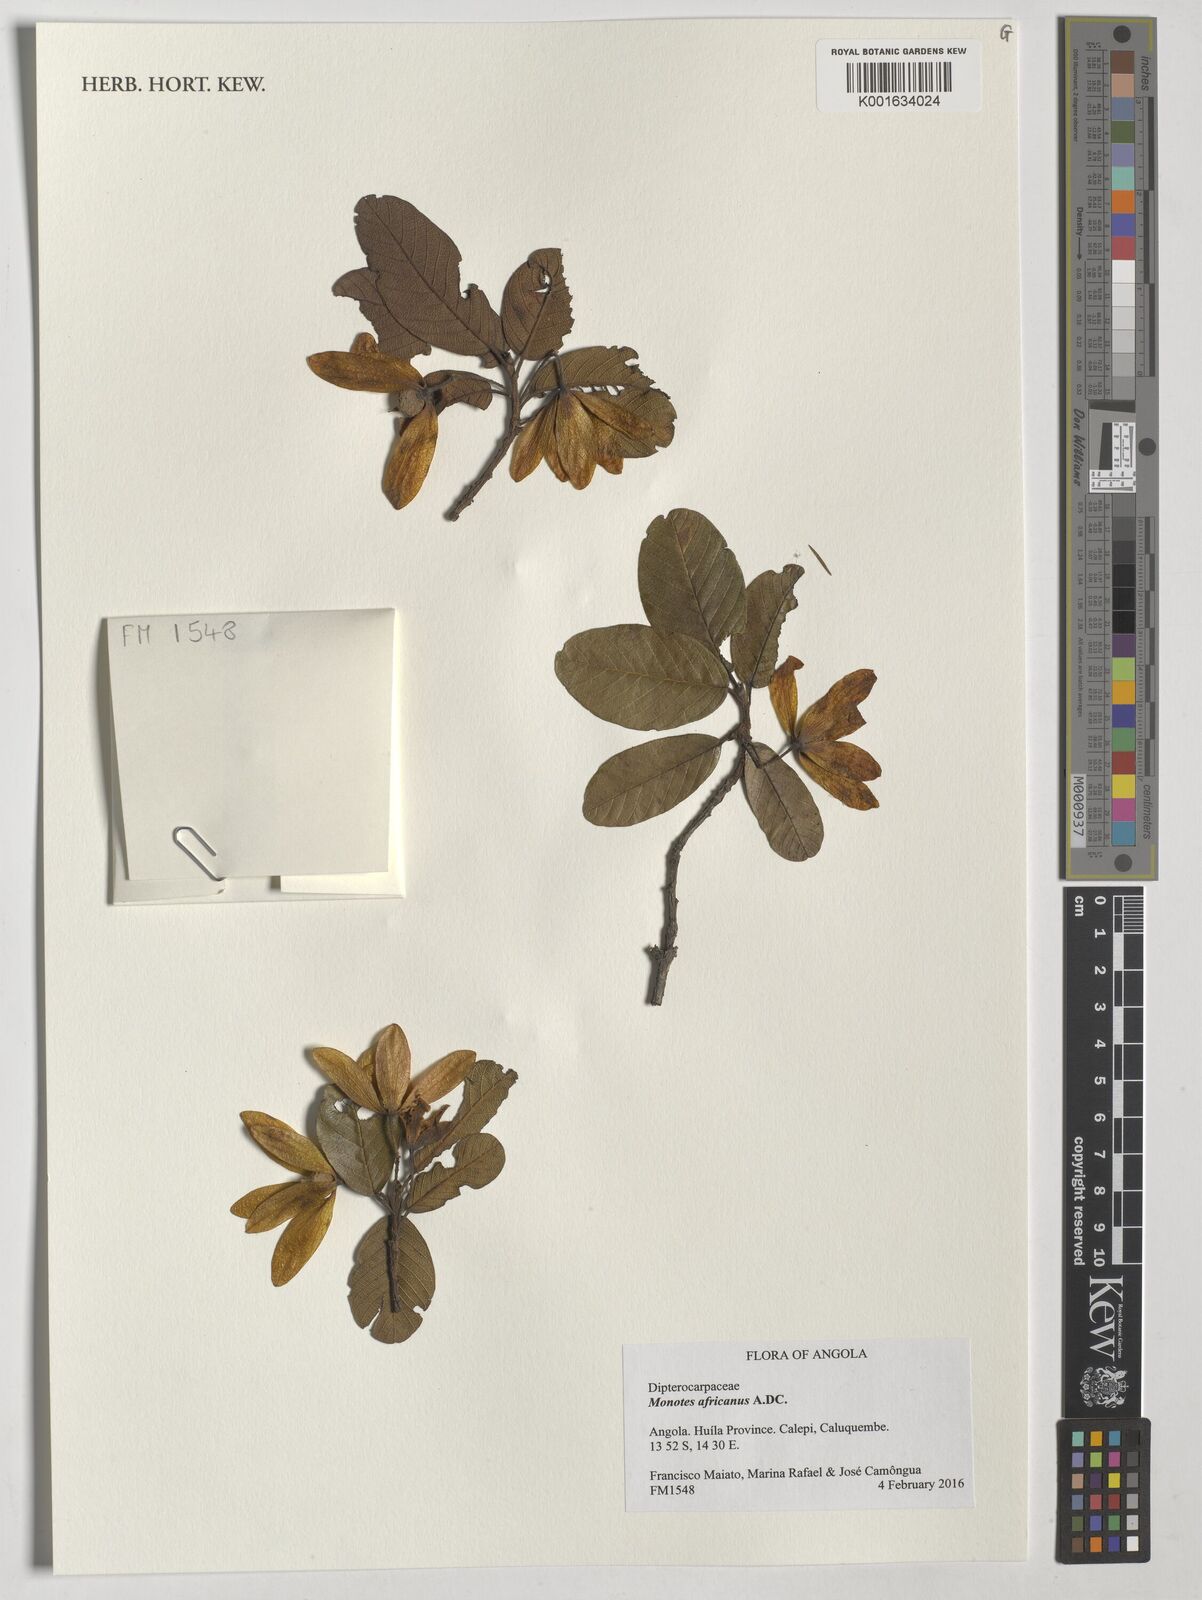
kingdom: Plantae
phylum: Tracheophyta
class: Magnoliopsida
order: Malvales
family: Dipterocarpaceae
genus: Monotes
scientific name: Monotes africanus
